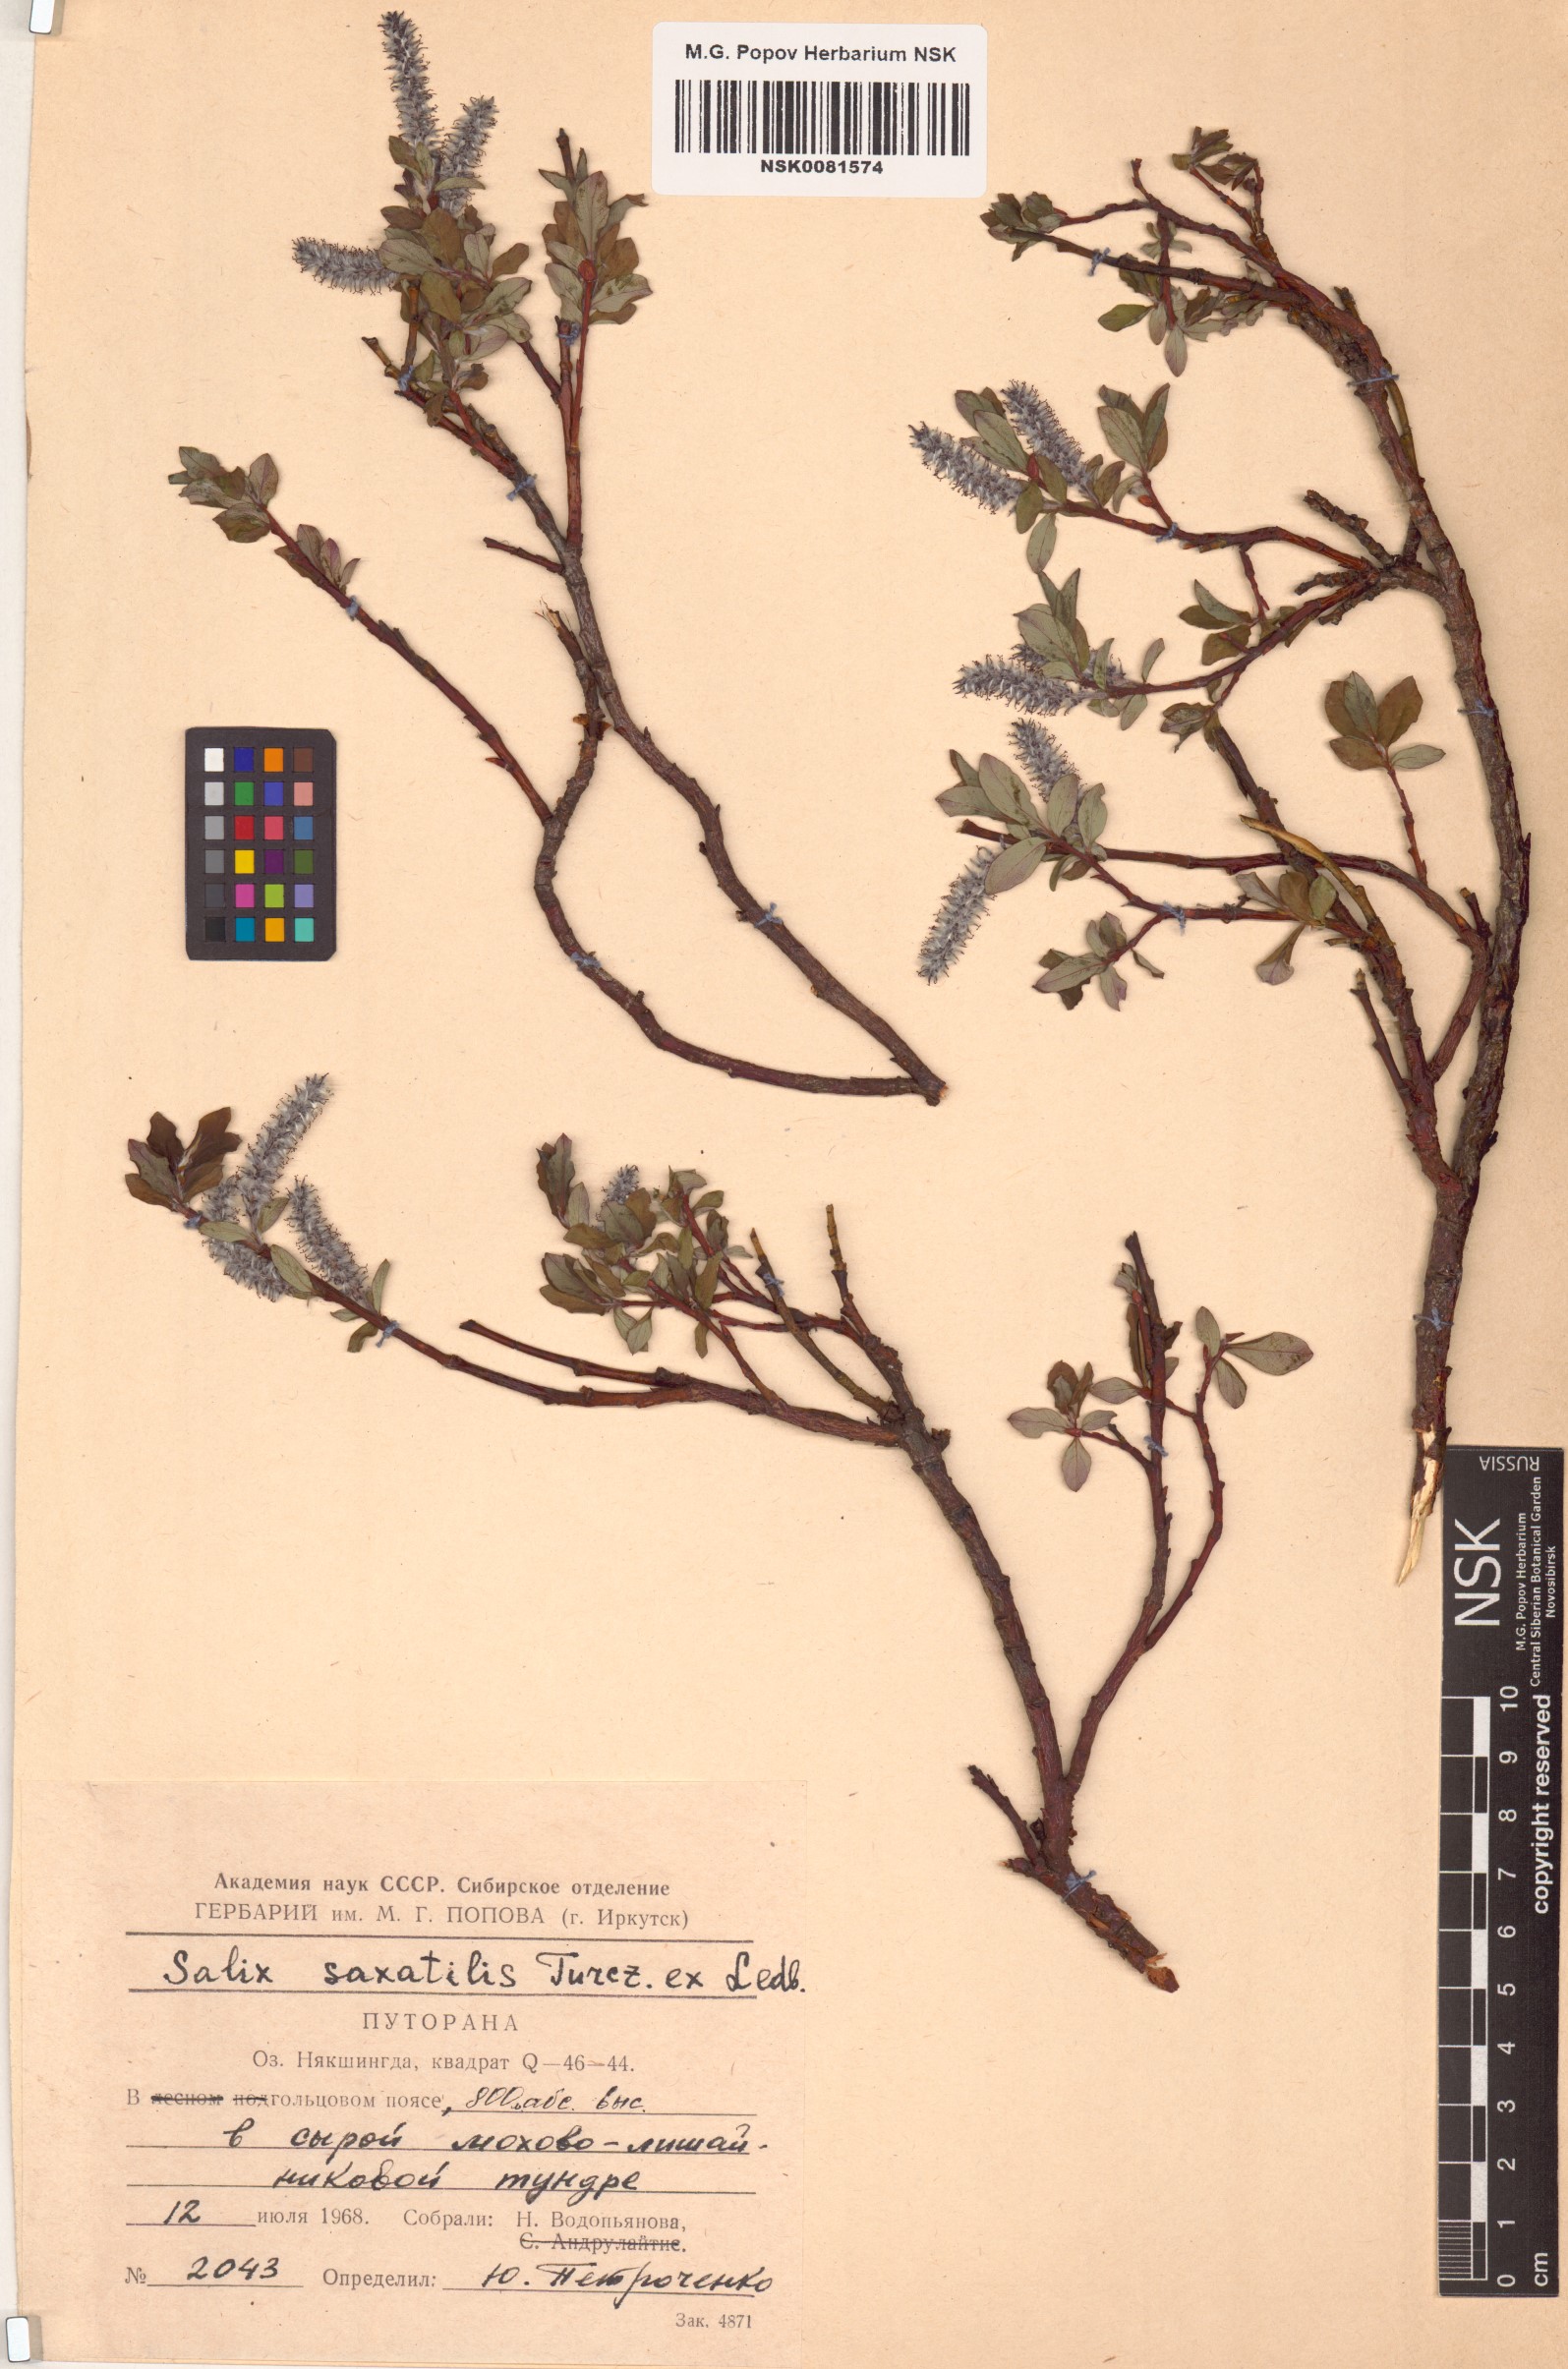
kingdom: Plantae
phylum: Tracheophyta
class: Magnoliopsida
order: Malpighiales
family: Salicaceae
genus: Salix
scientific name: Salix saxatilis
